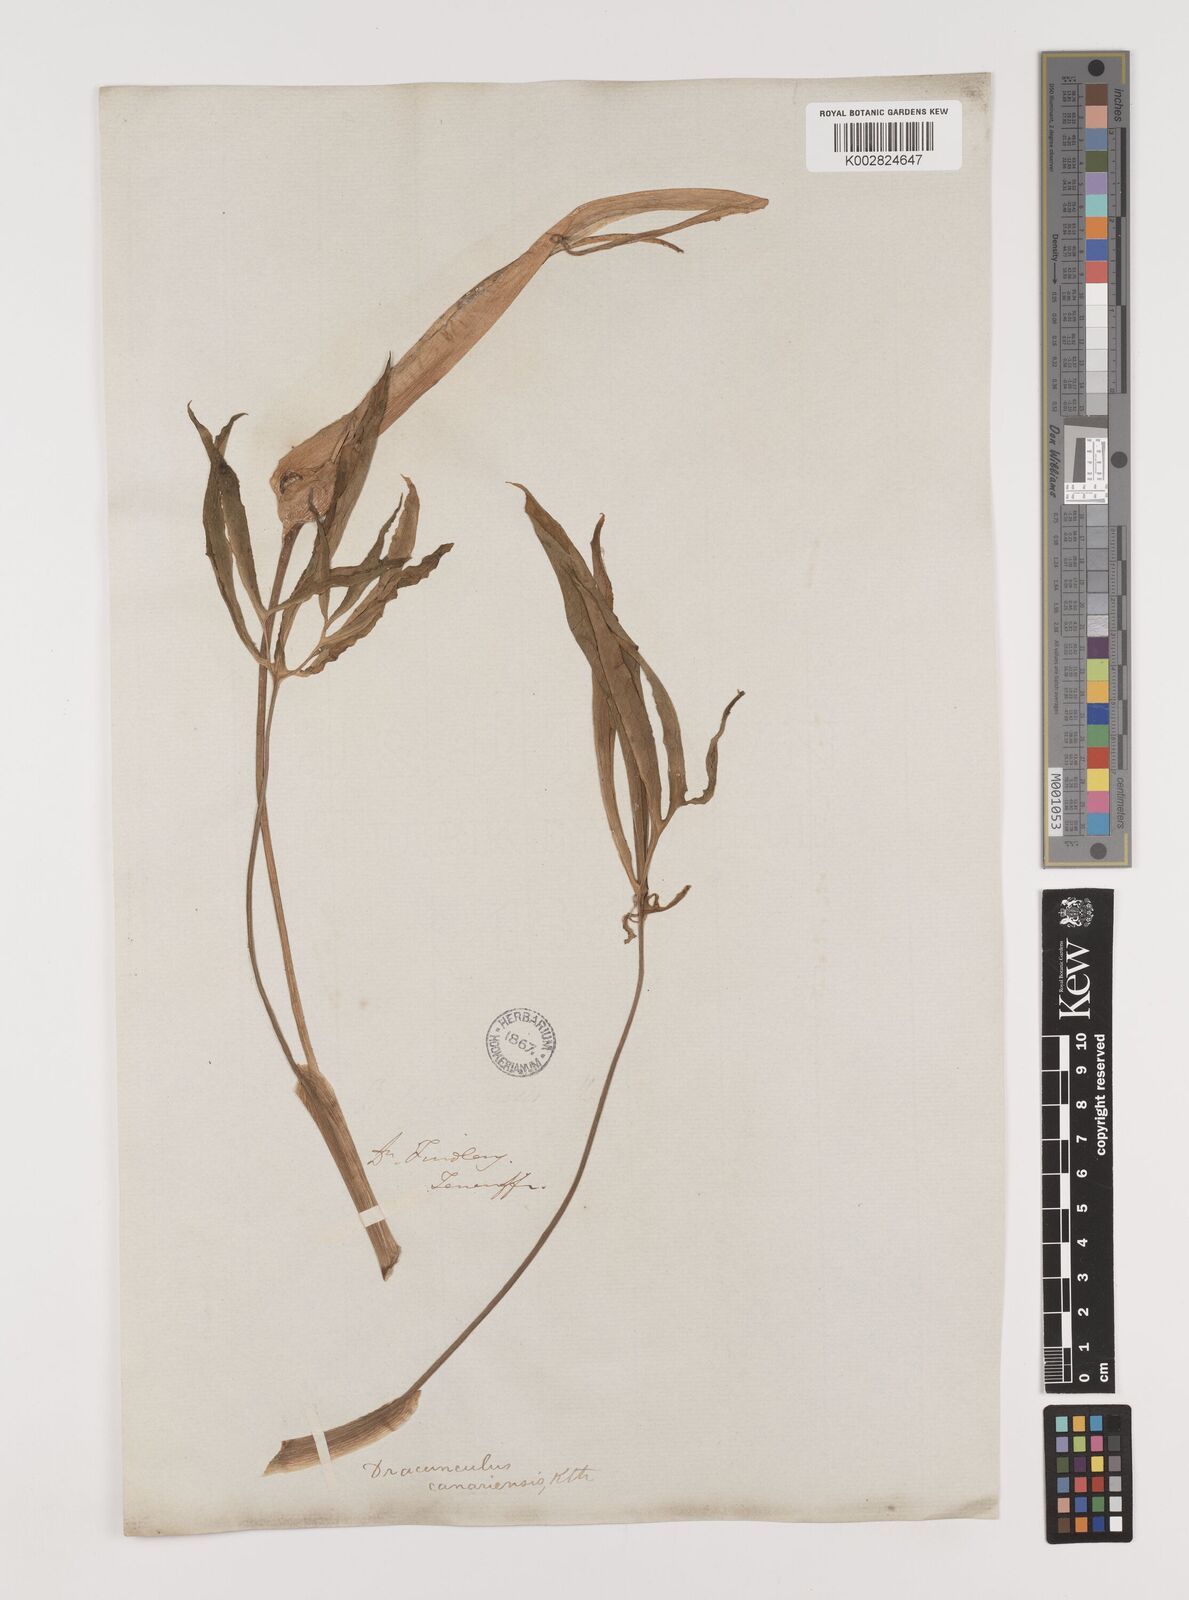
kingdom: Plantae
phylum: Tracheophyta
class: Liliopsida
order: Alismatales
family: Araceae
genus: Dracunculus
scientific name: Dracunculus canariensis
